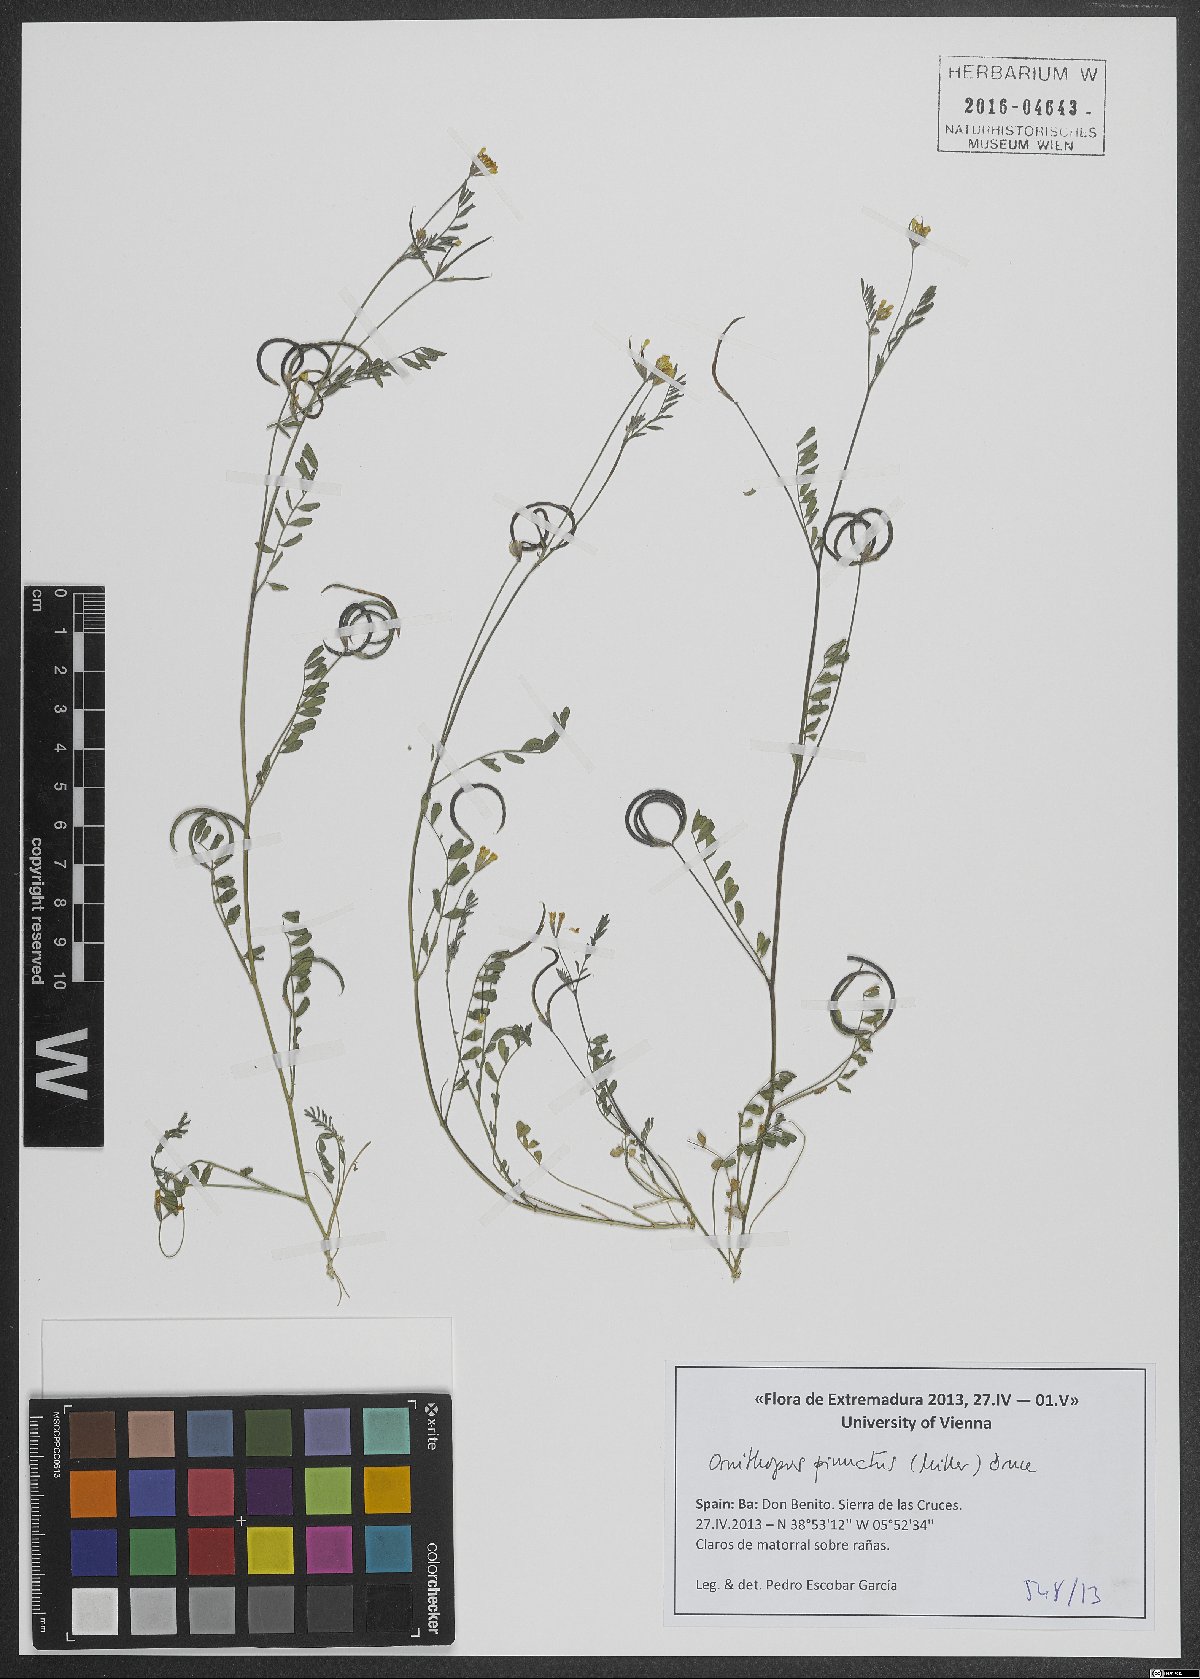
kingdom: Plantae
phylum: Tracheophyta
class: Magnoliopsida
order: Fabales
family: Fabaceae
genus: Ornithopus
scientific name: Ornithopus pinnatus
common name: Orange bird's-foot
